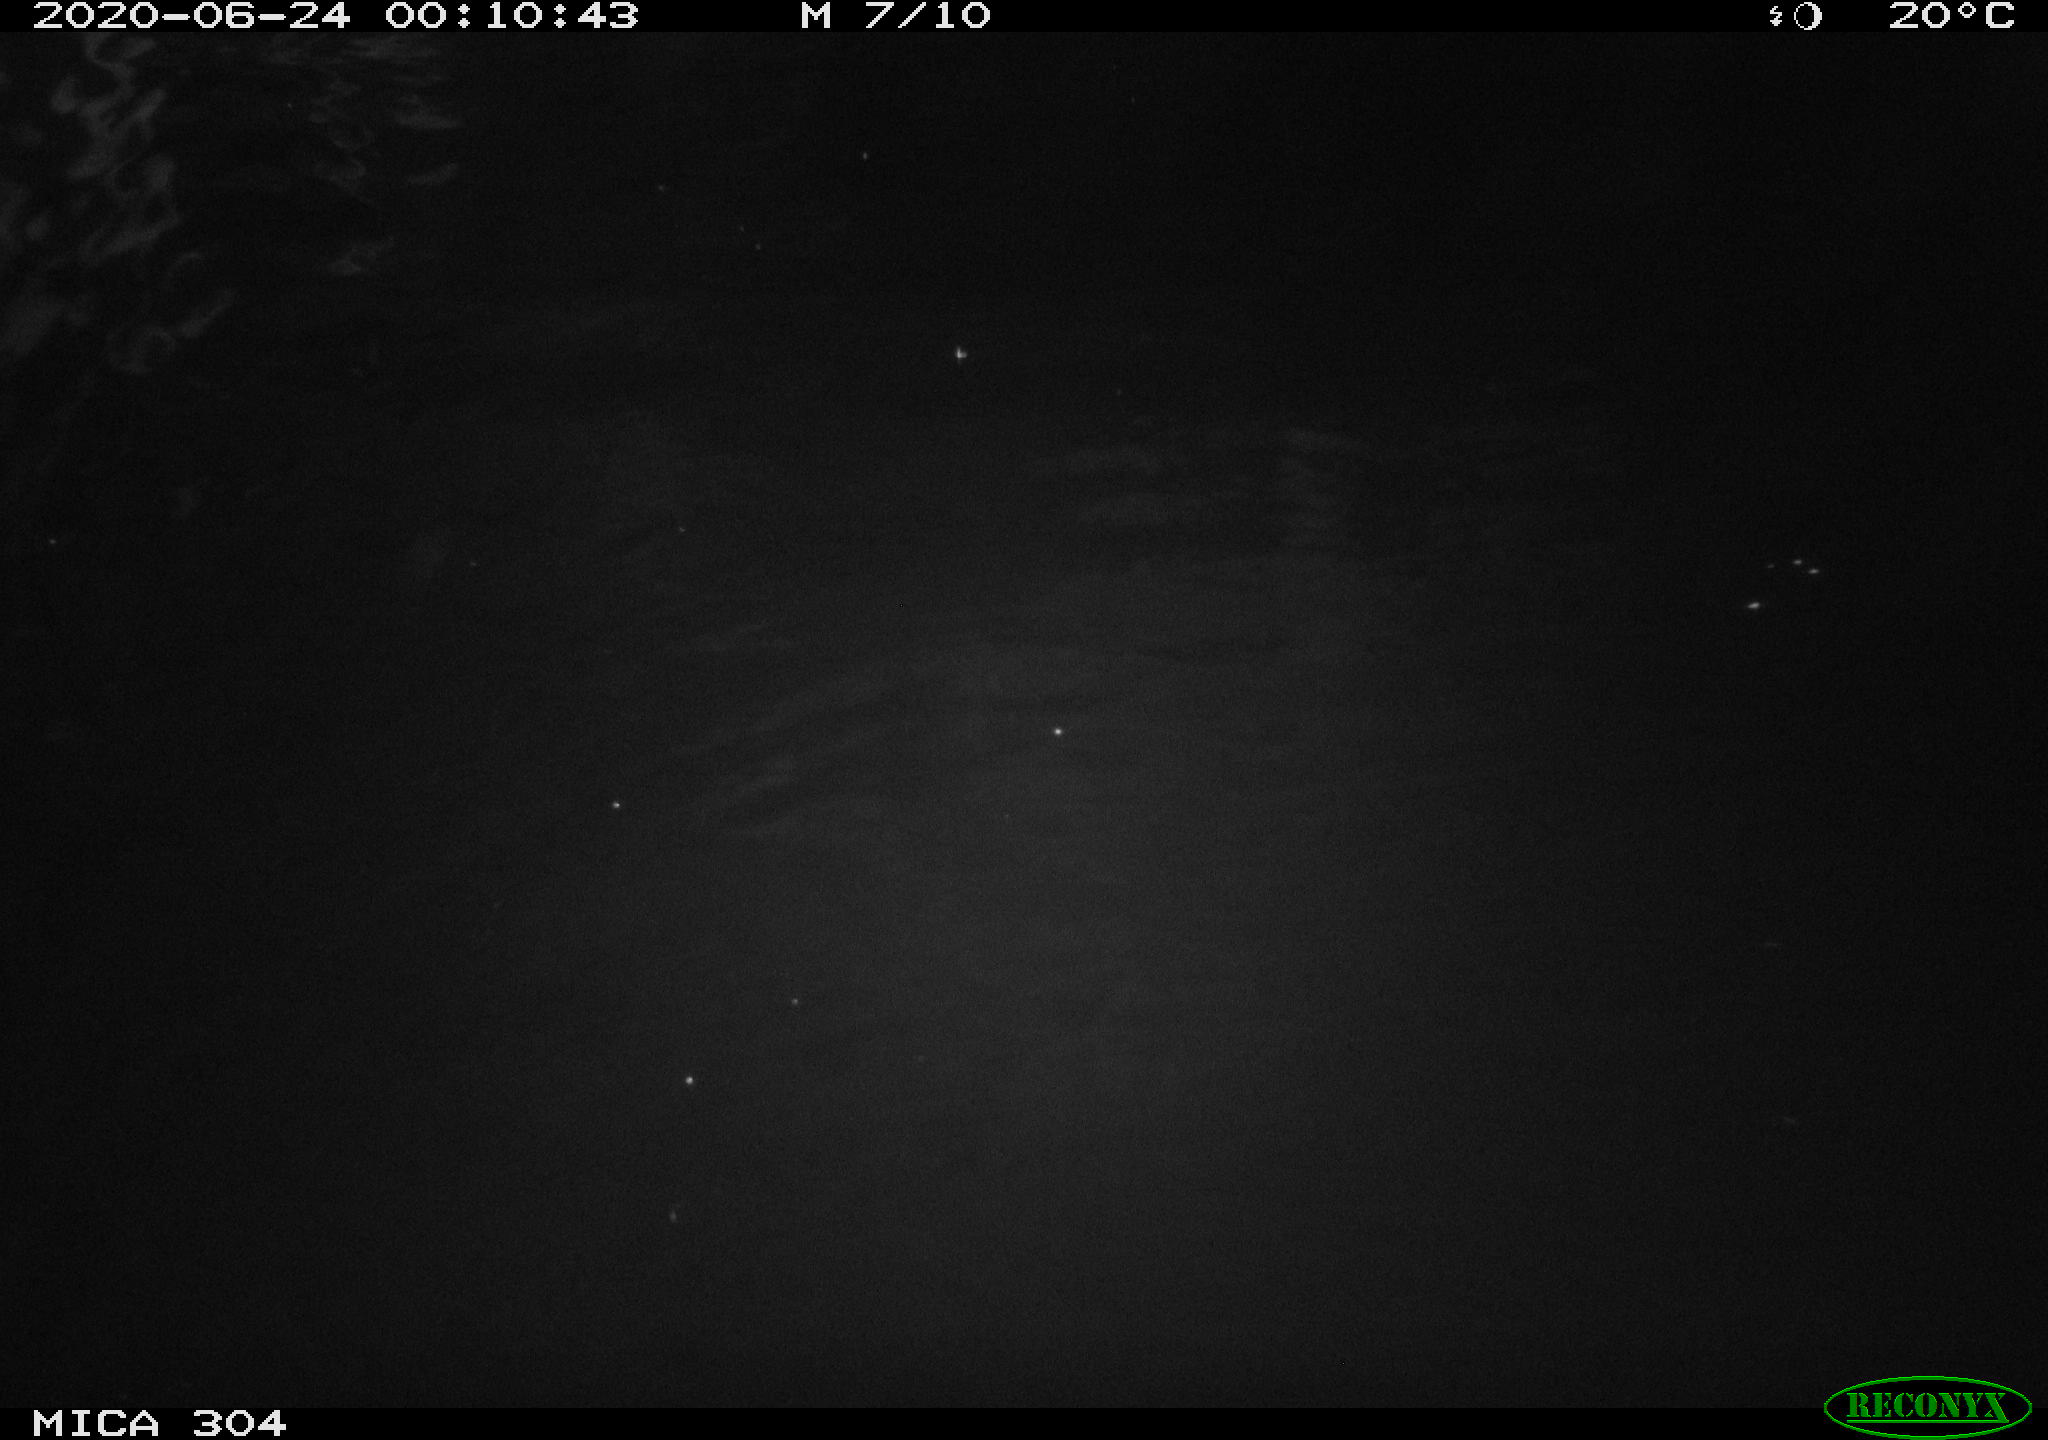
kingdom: Animalia
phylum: Chordata
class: Mammalia
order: Rodentia
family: Cricetidae
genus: Ondatra
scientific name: Ondatra zibethicus
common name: Muskrat
